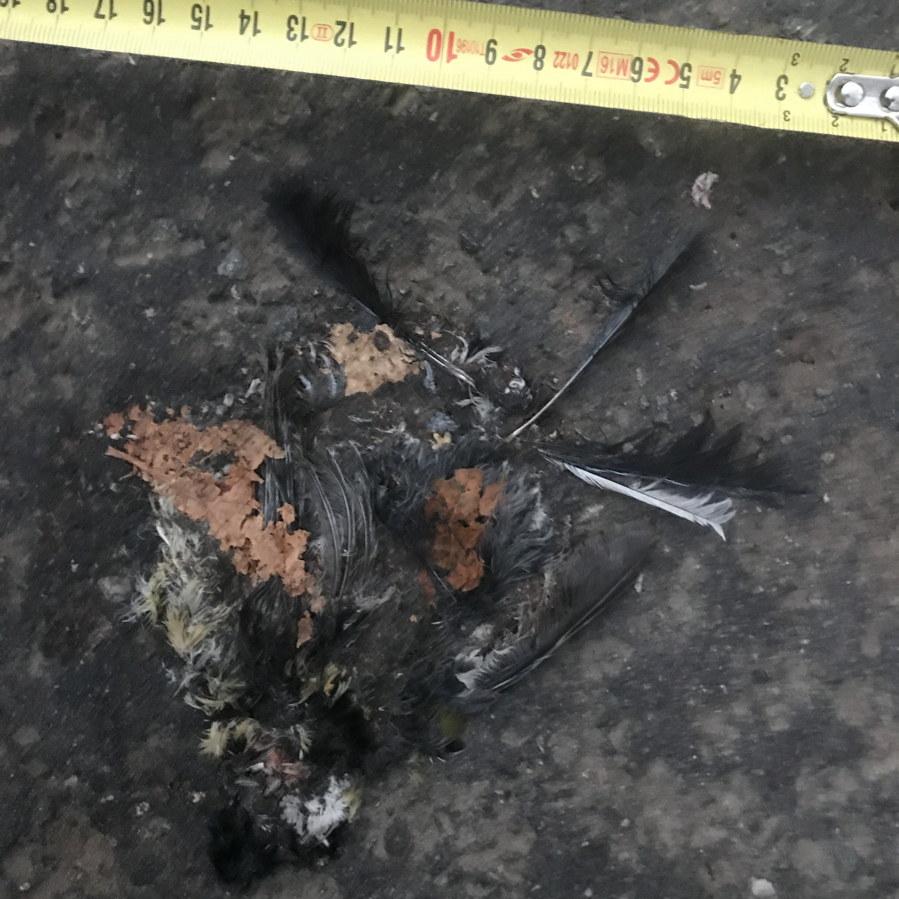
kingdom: Animalia
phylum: Chordata
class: Aves
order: Passeriformes
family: Paridae
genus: Parus
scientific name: Parus major
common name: Great tit
